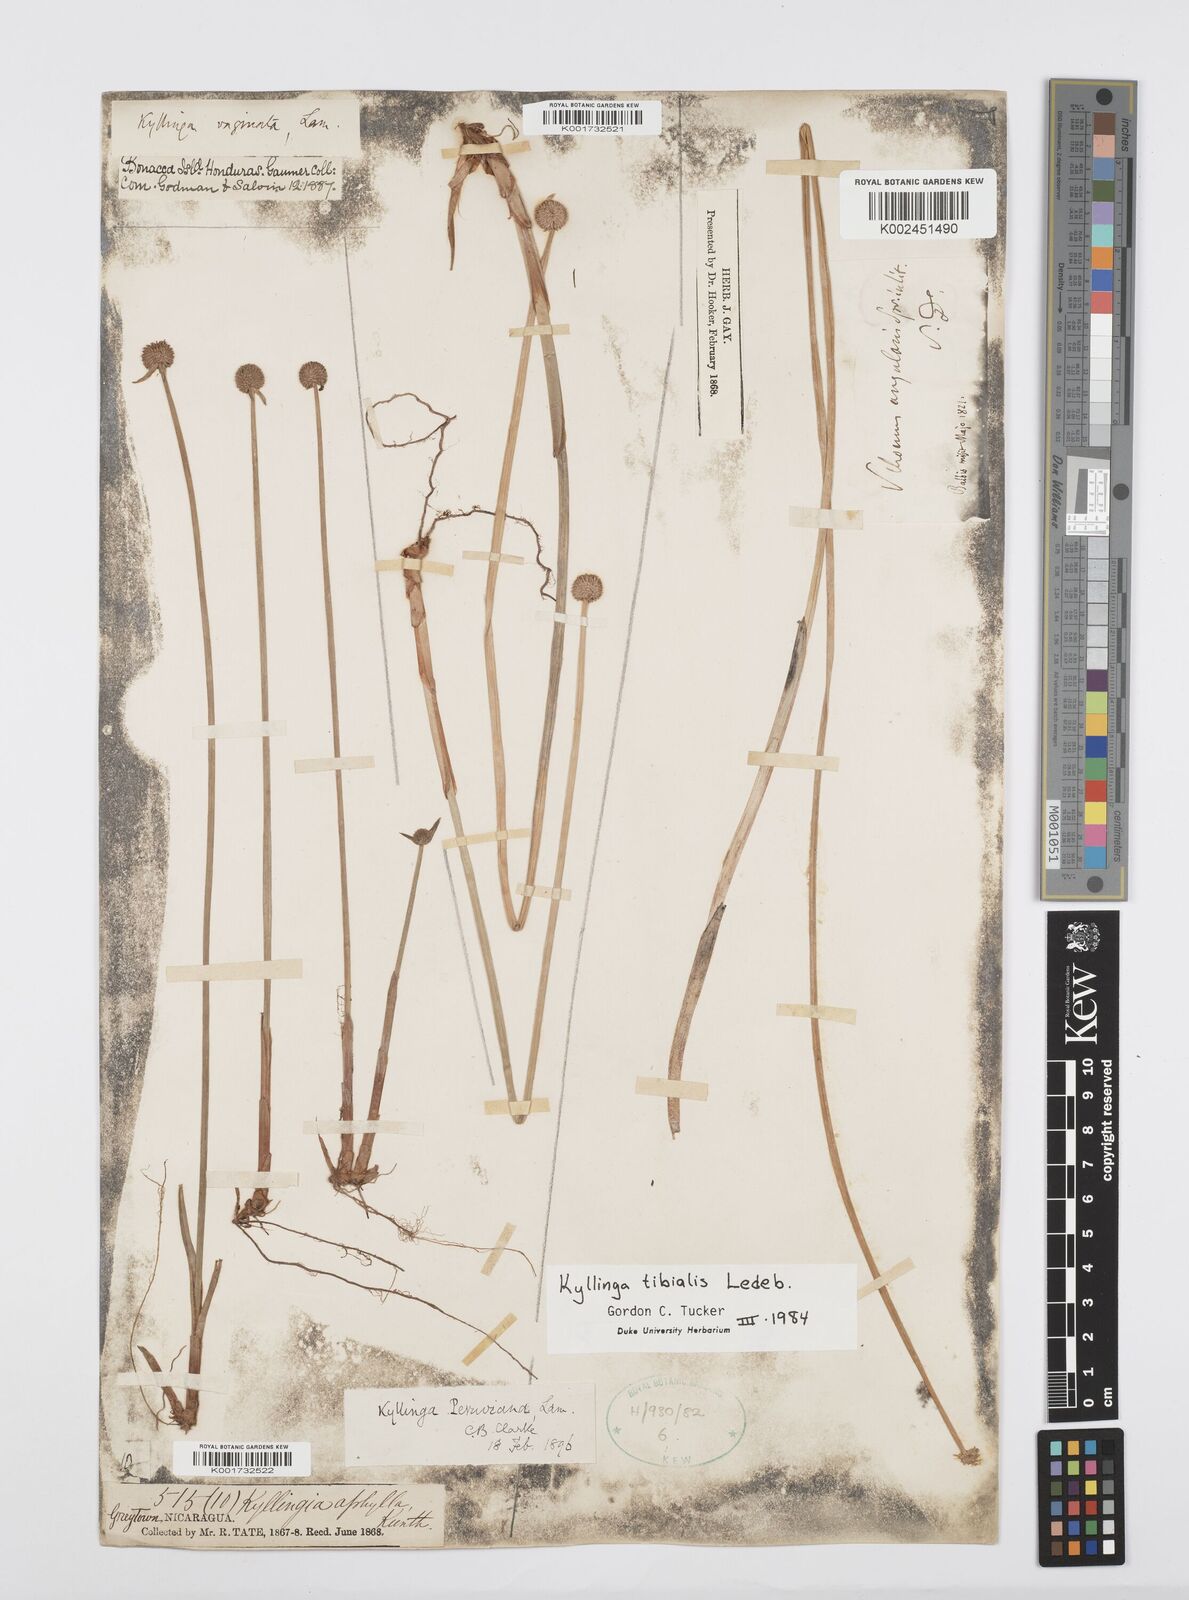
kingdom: Plantae
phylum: Tracheophyta
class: Liliopsida
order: Poales
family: Cyperaceae
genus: Cyperus
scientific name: Cyperus obtusatus
